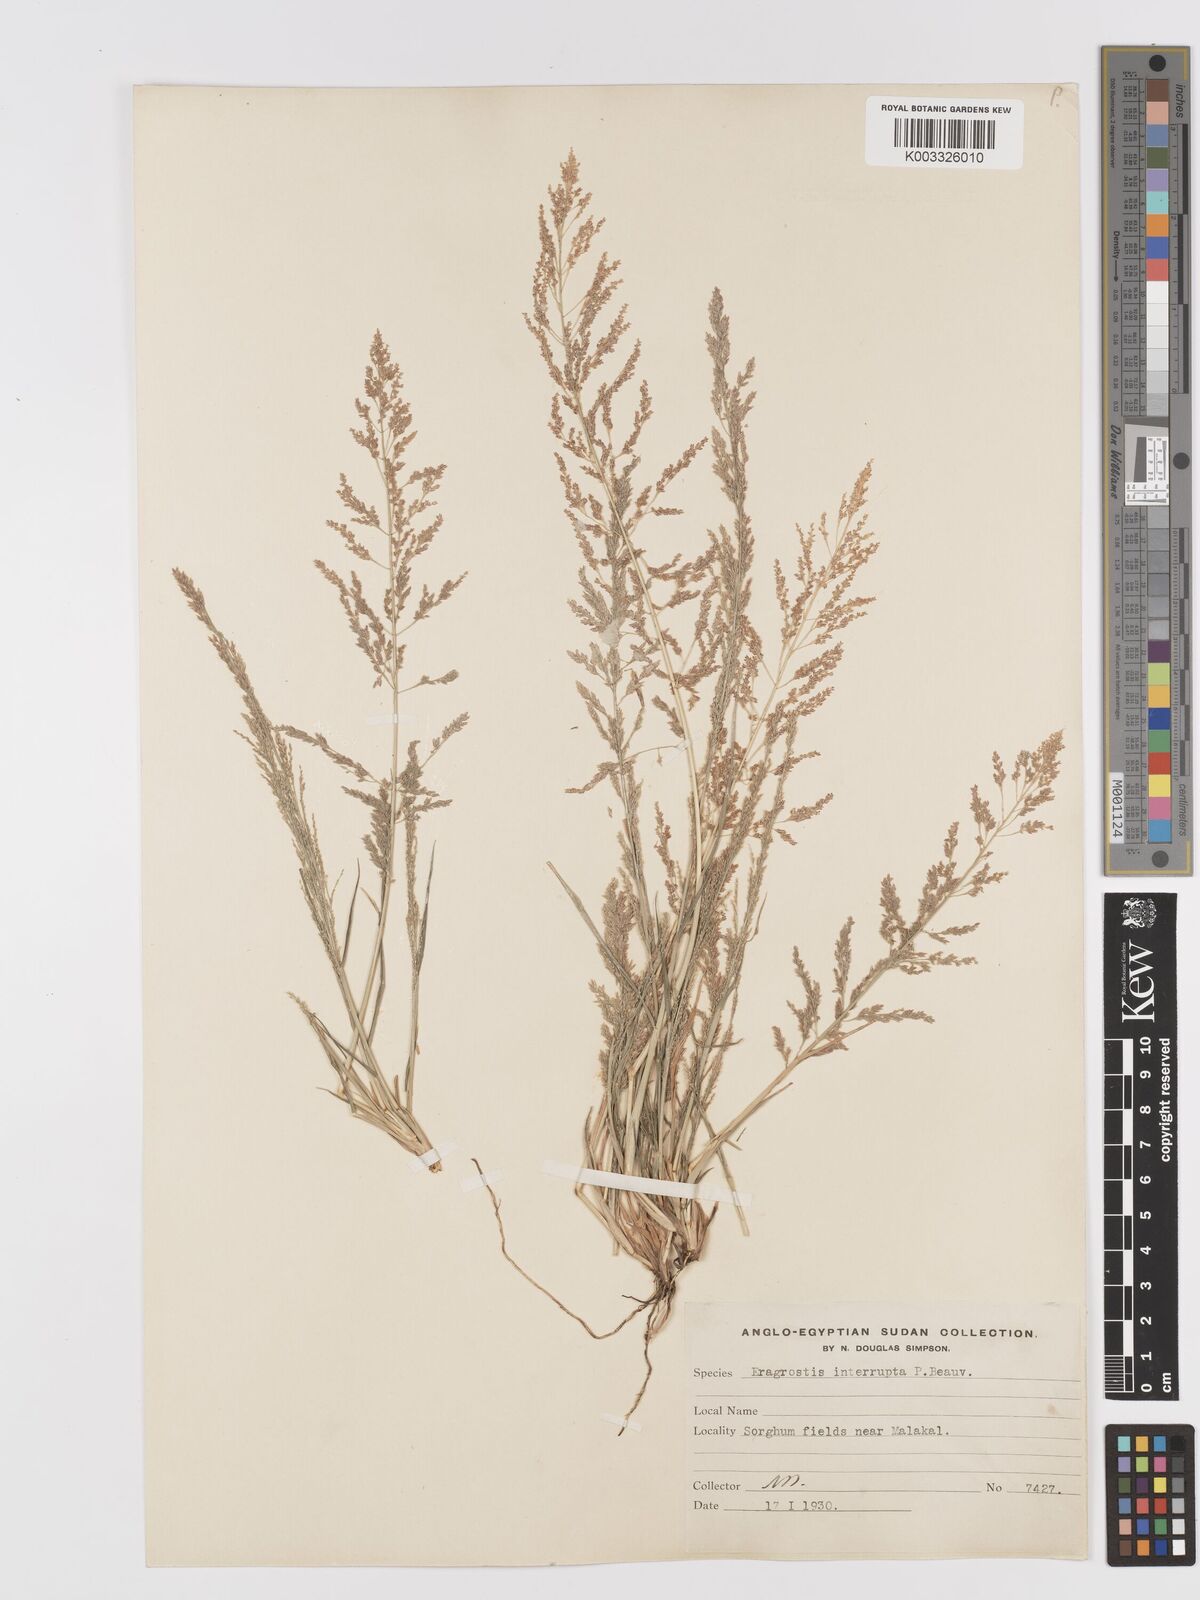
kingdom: Plantae
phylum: Tracheophyta
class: Liliopsida
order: Poales
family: Poaceae
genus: Eragrostis
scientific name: Eragrostis japonica
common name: Pond lovegrass
